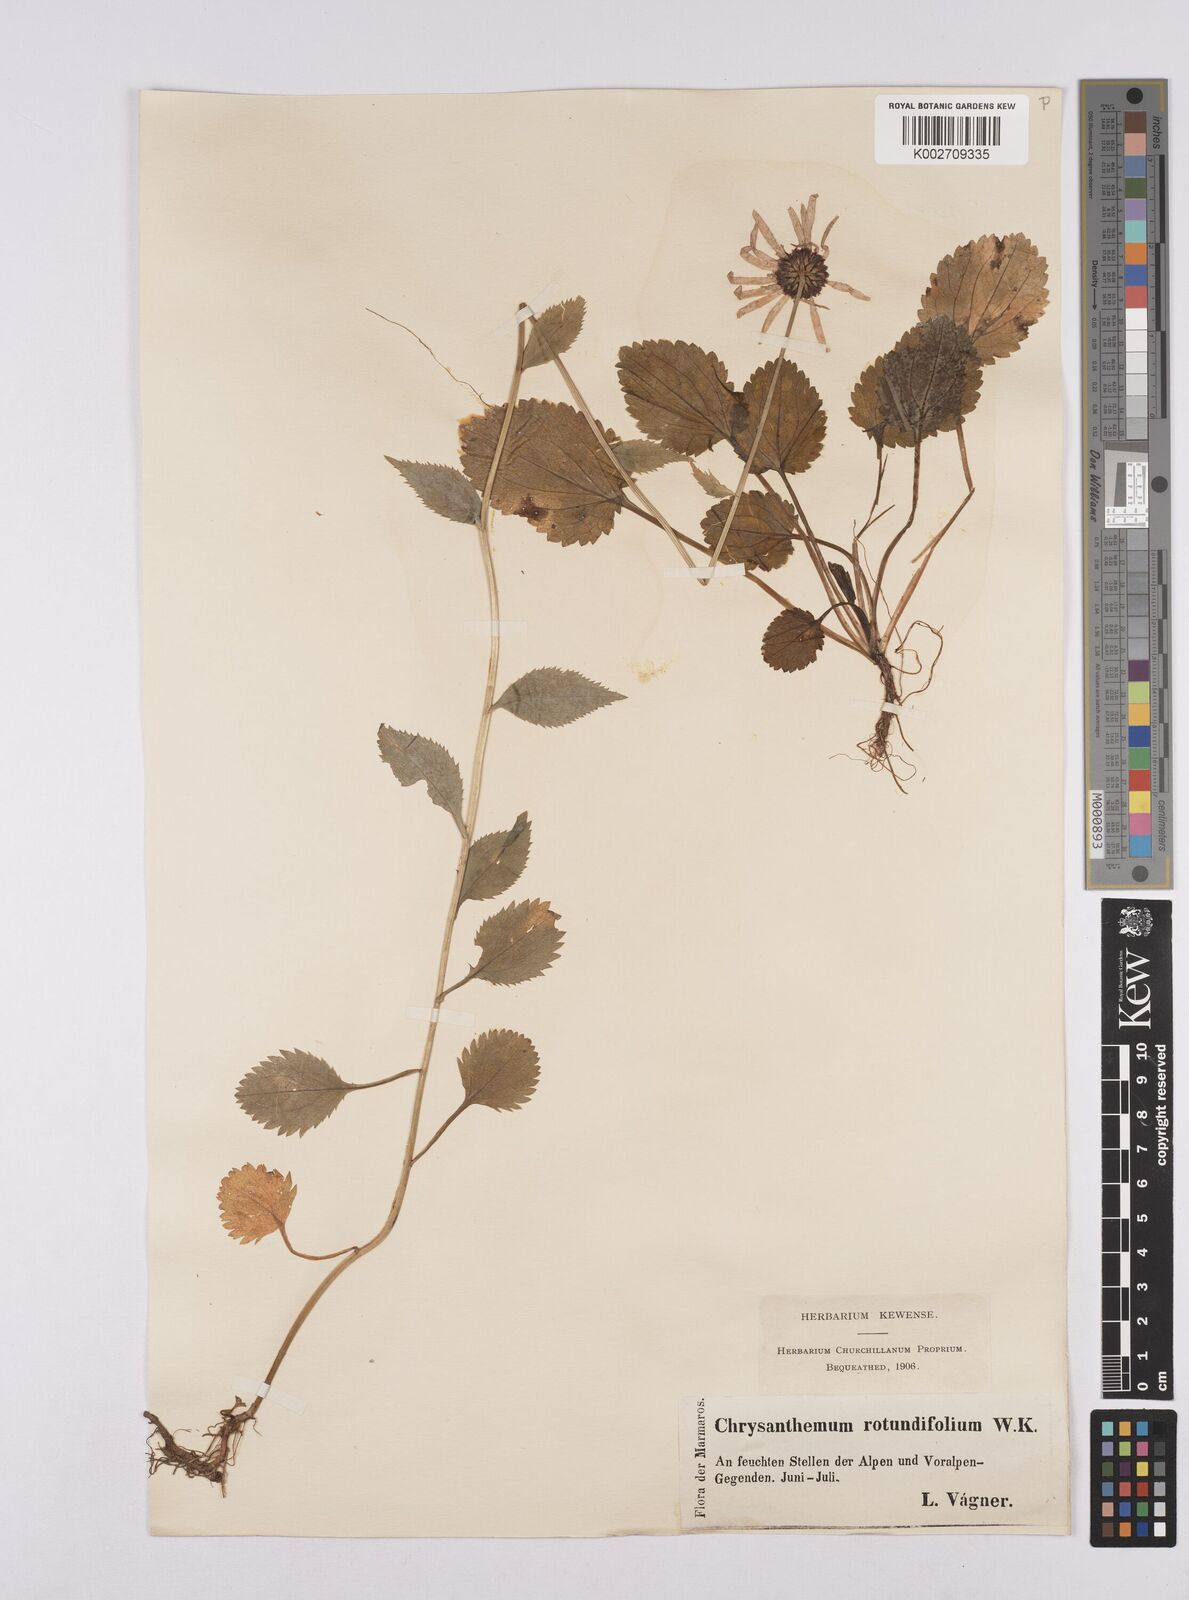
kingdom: Plantae
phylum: Tracheophyta
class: Magnoliopsida
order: Asterales
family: Asteraceae
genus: Leucanthemum
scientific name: Leucanthemum rotundifolium
